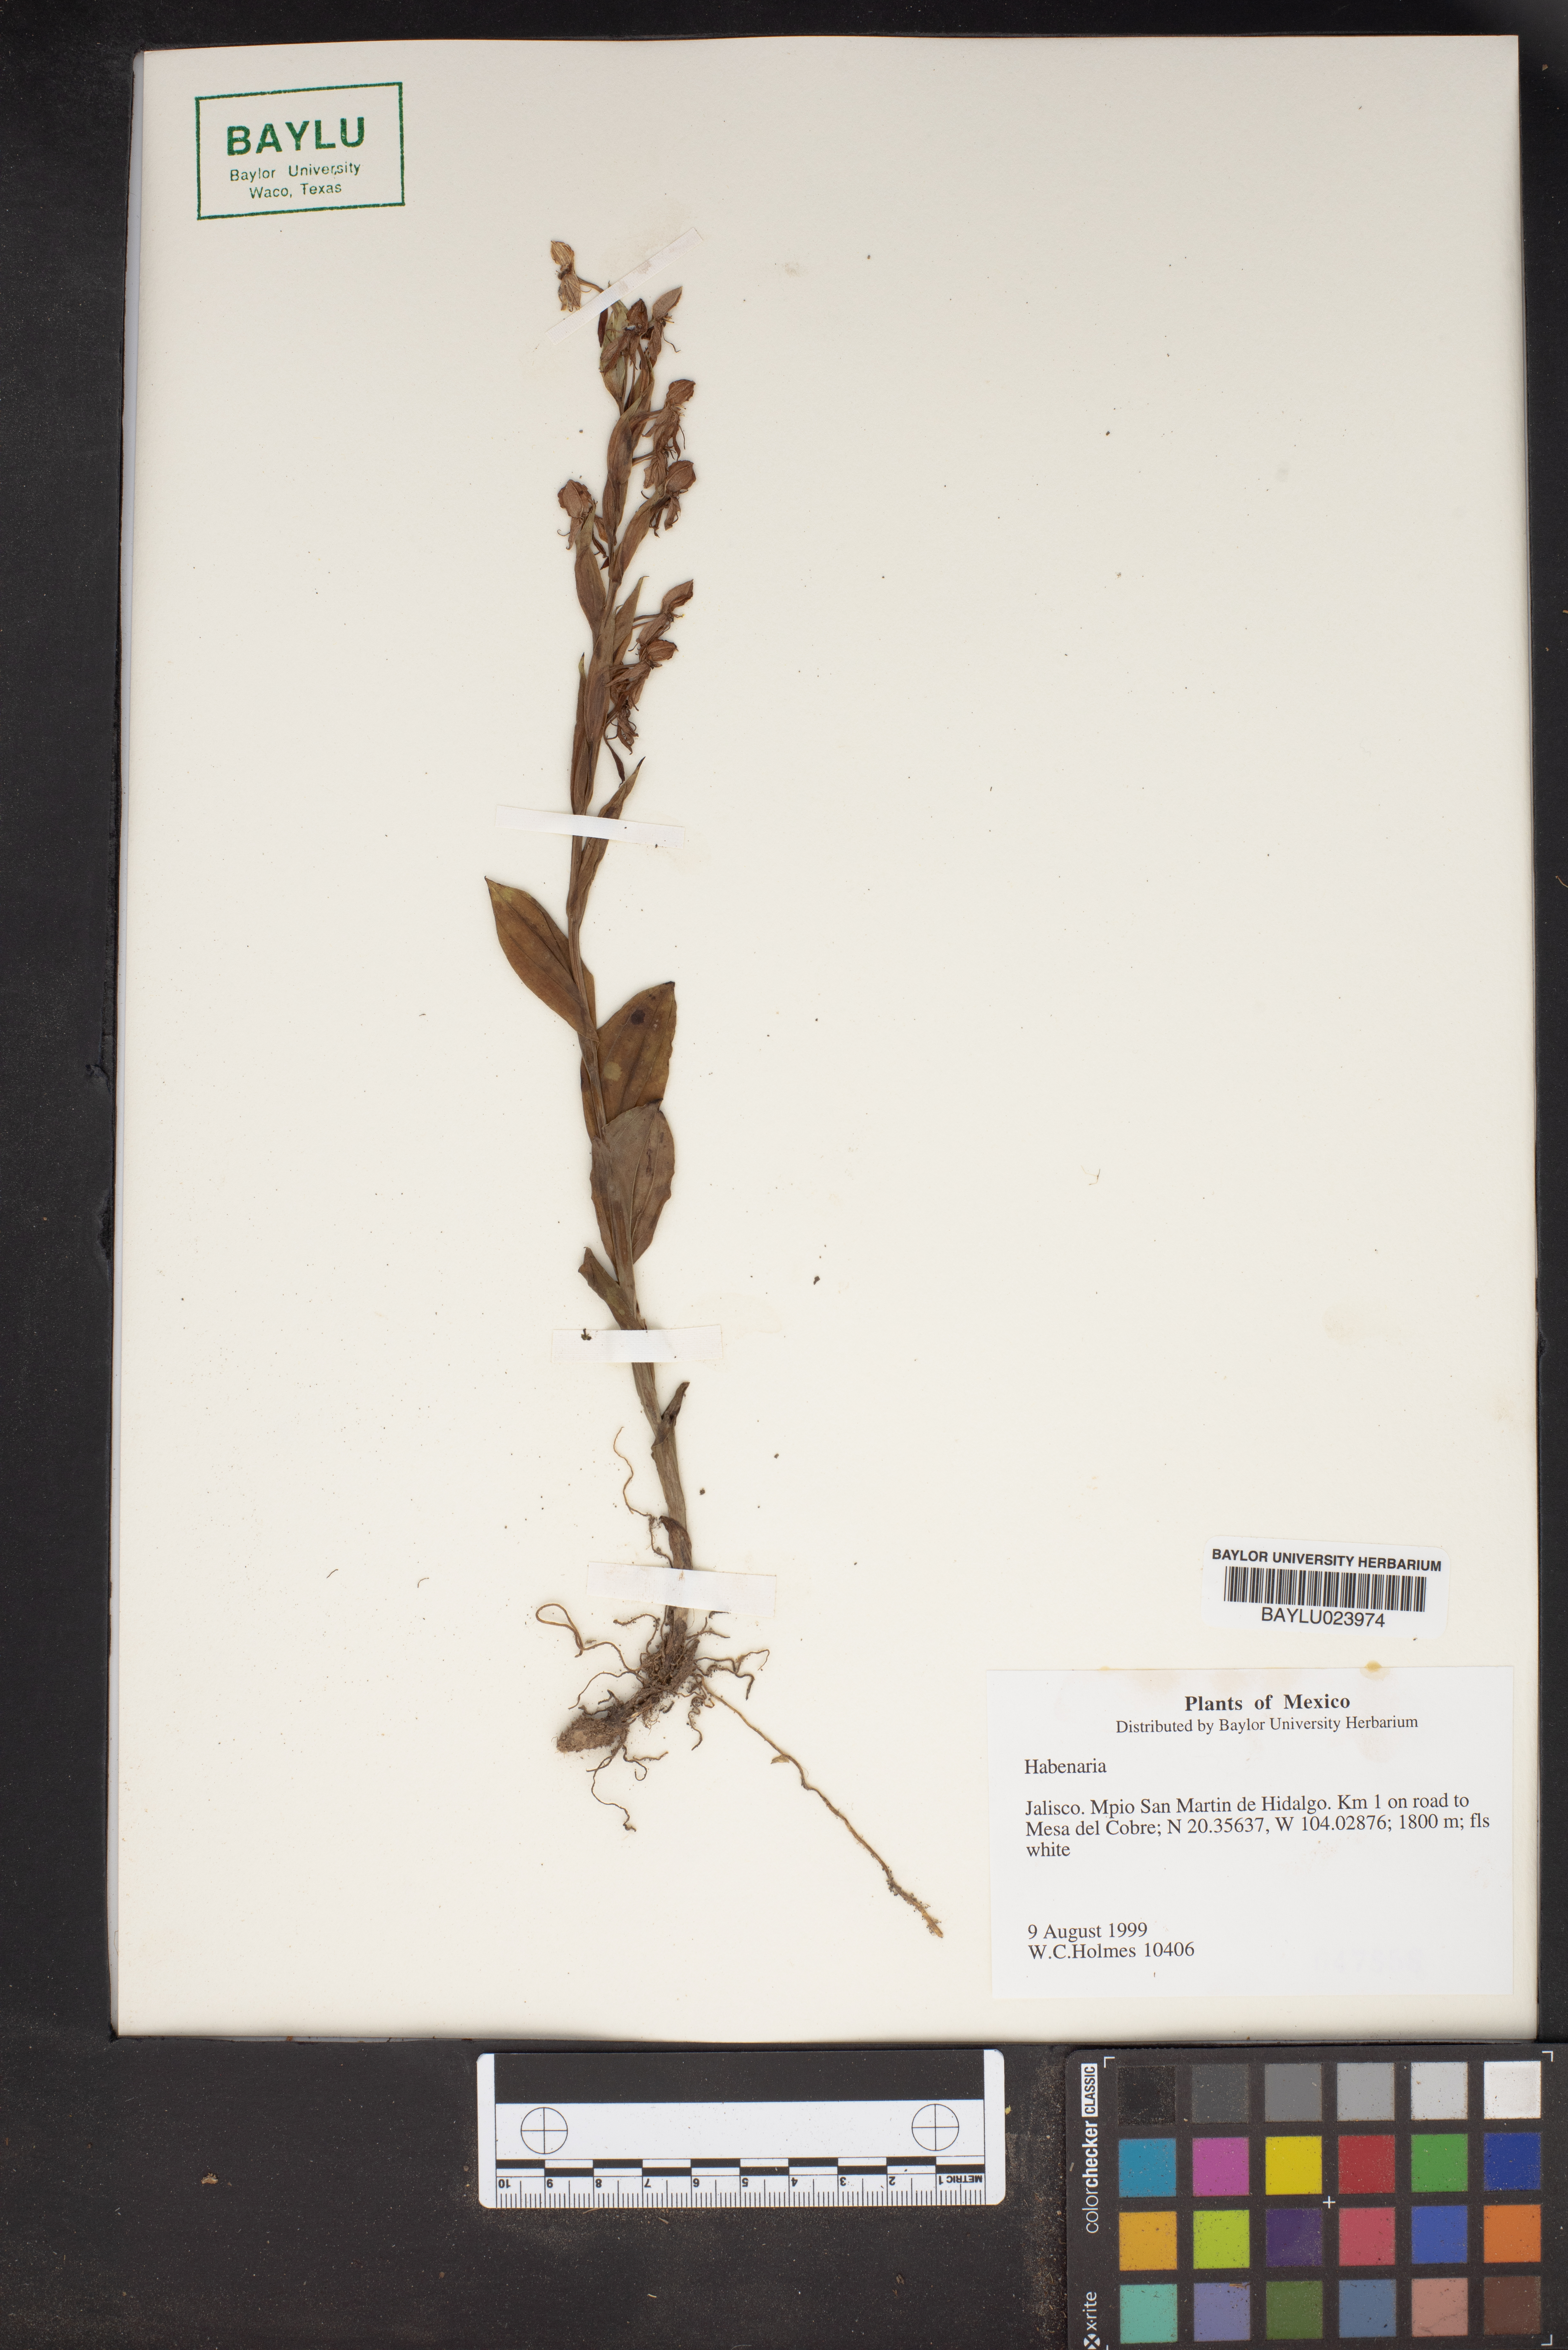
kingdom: Plantae
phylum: Tracheophyta
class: Liliopsida
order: Asparagales
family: Orchidaceae
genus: Habenaria
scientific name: Habenaria
